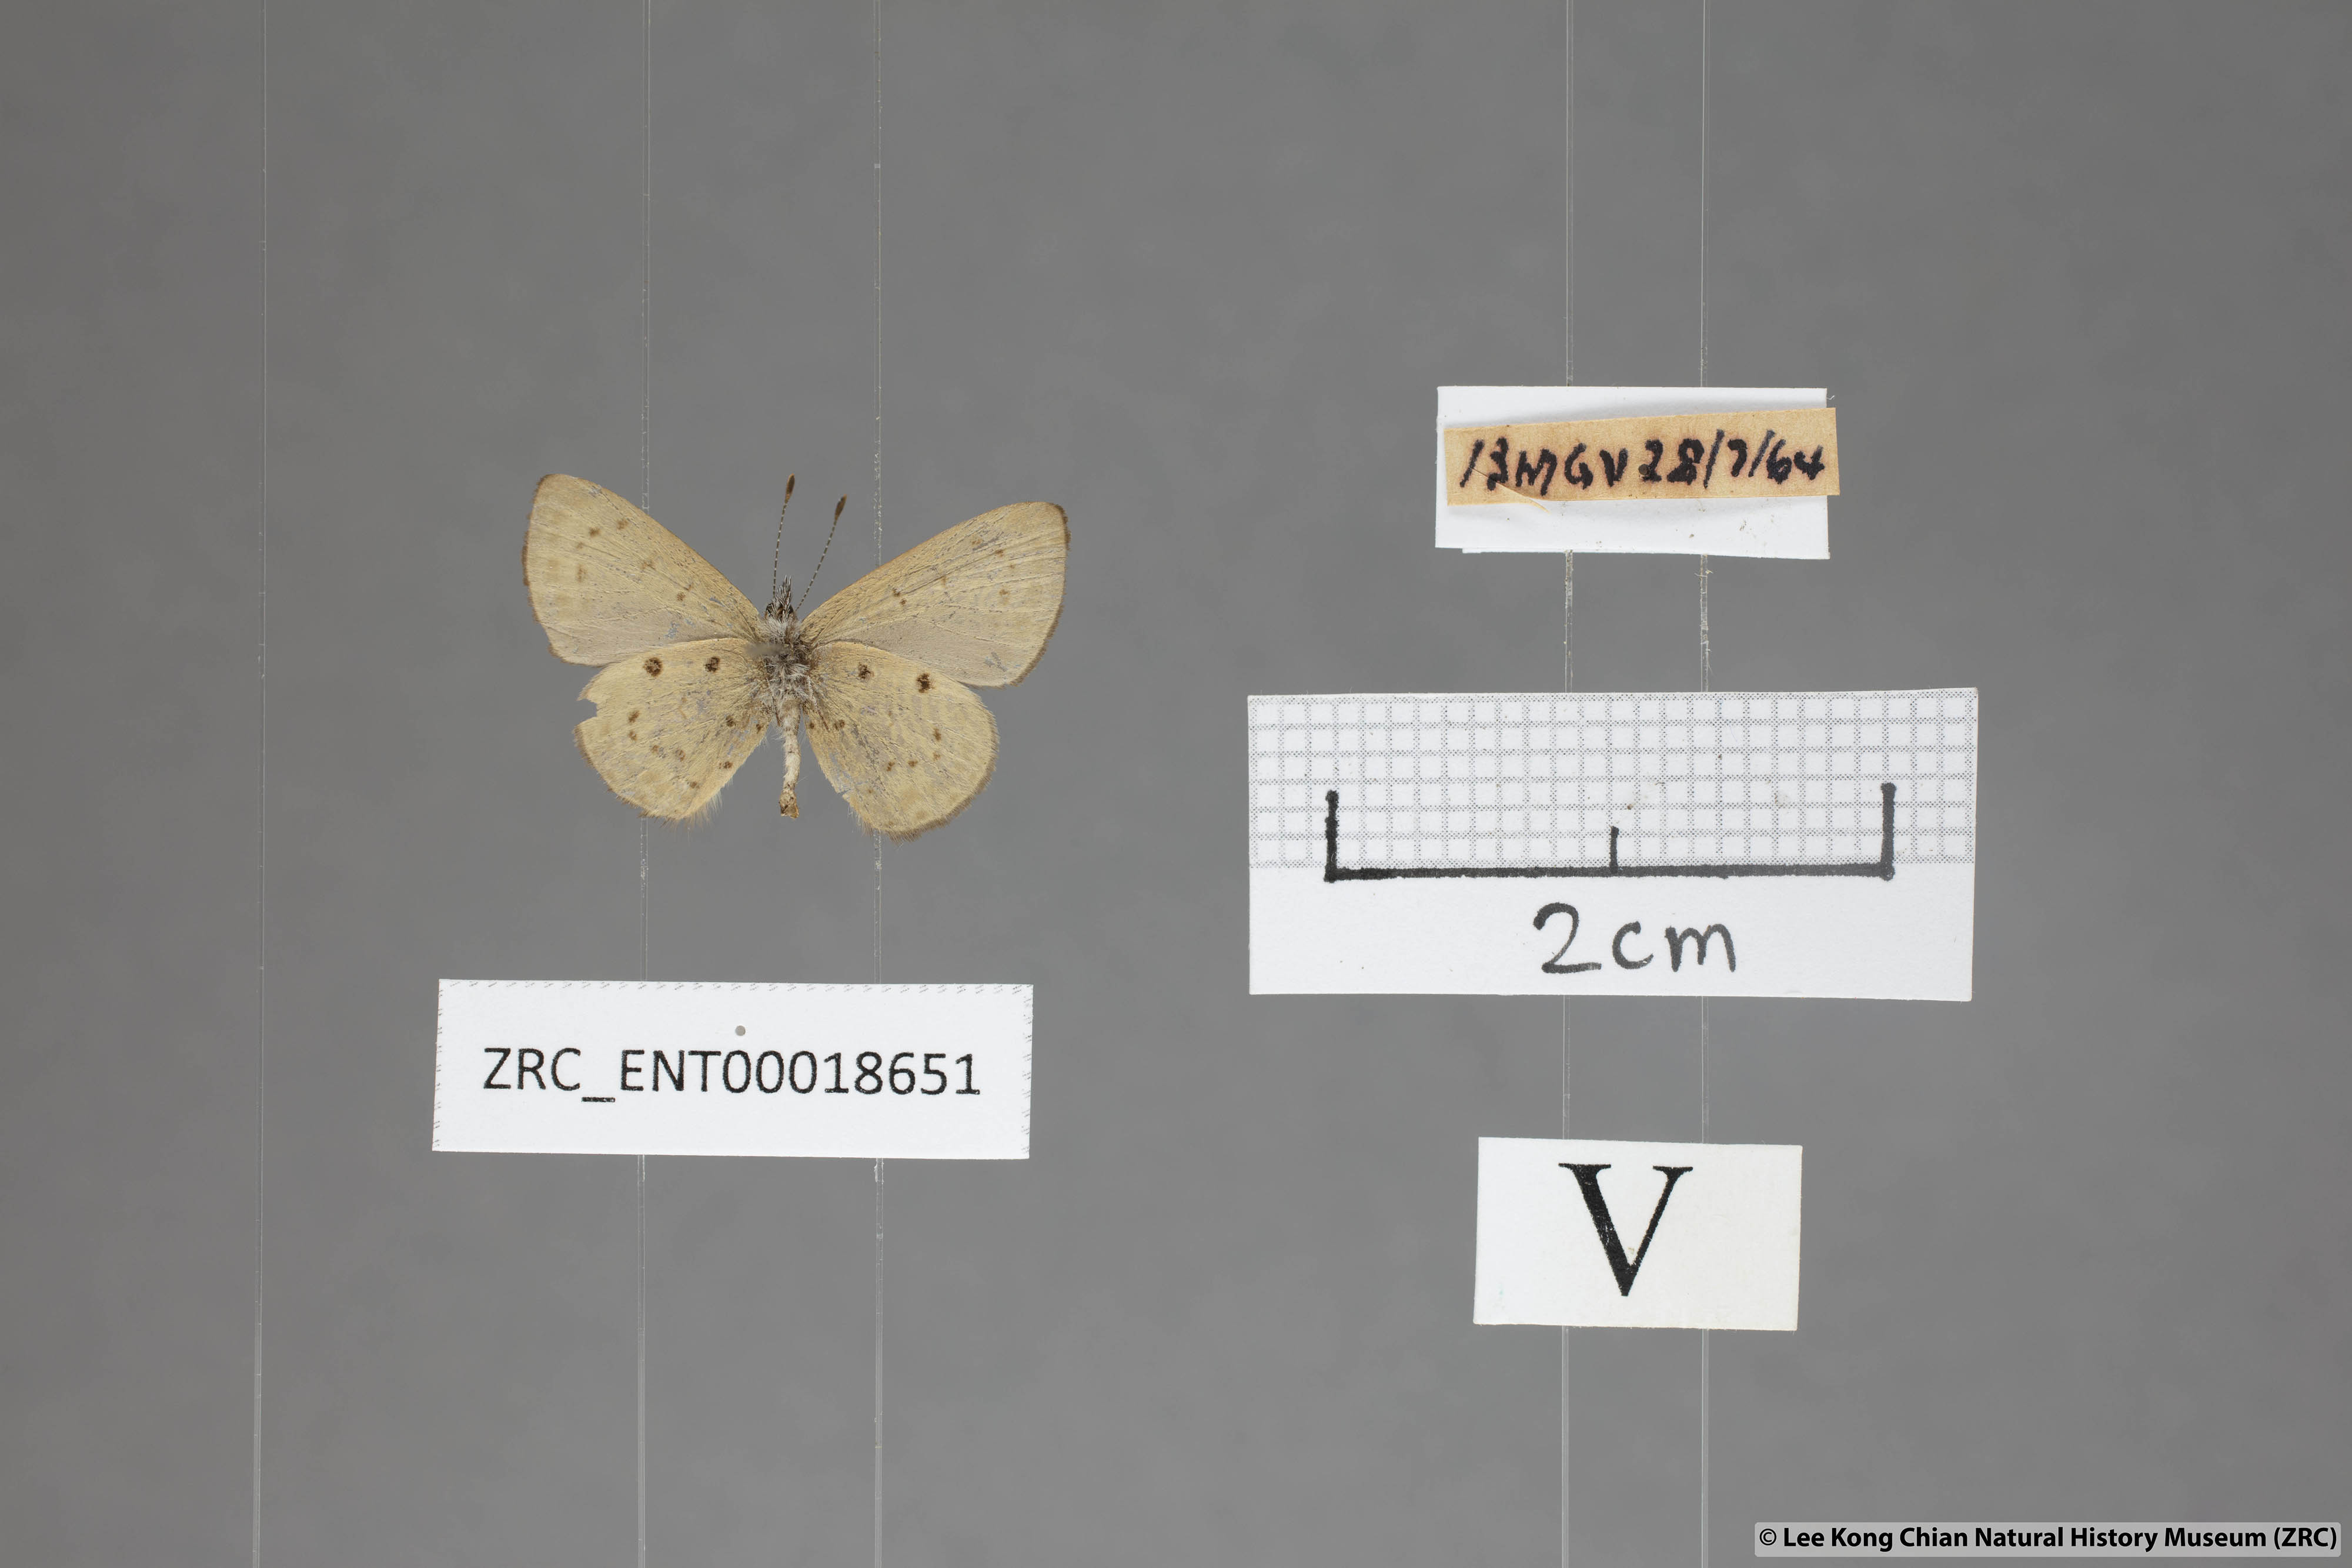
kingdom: Animalia
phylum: Arthropoda
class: Insecta
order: Lepidoptera
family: Lycaenidae
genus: Una
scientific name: Una usta
